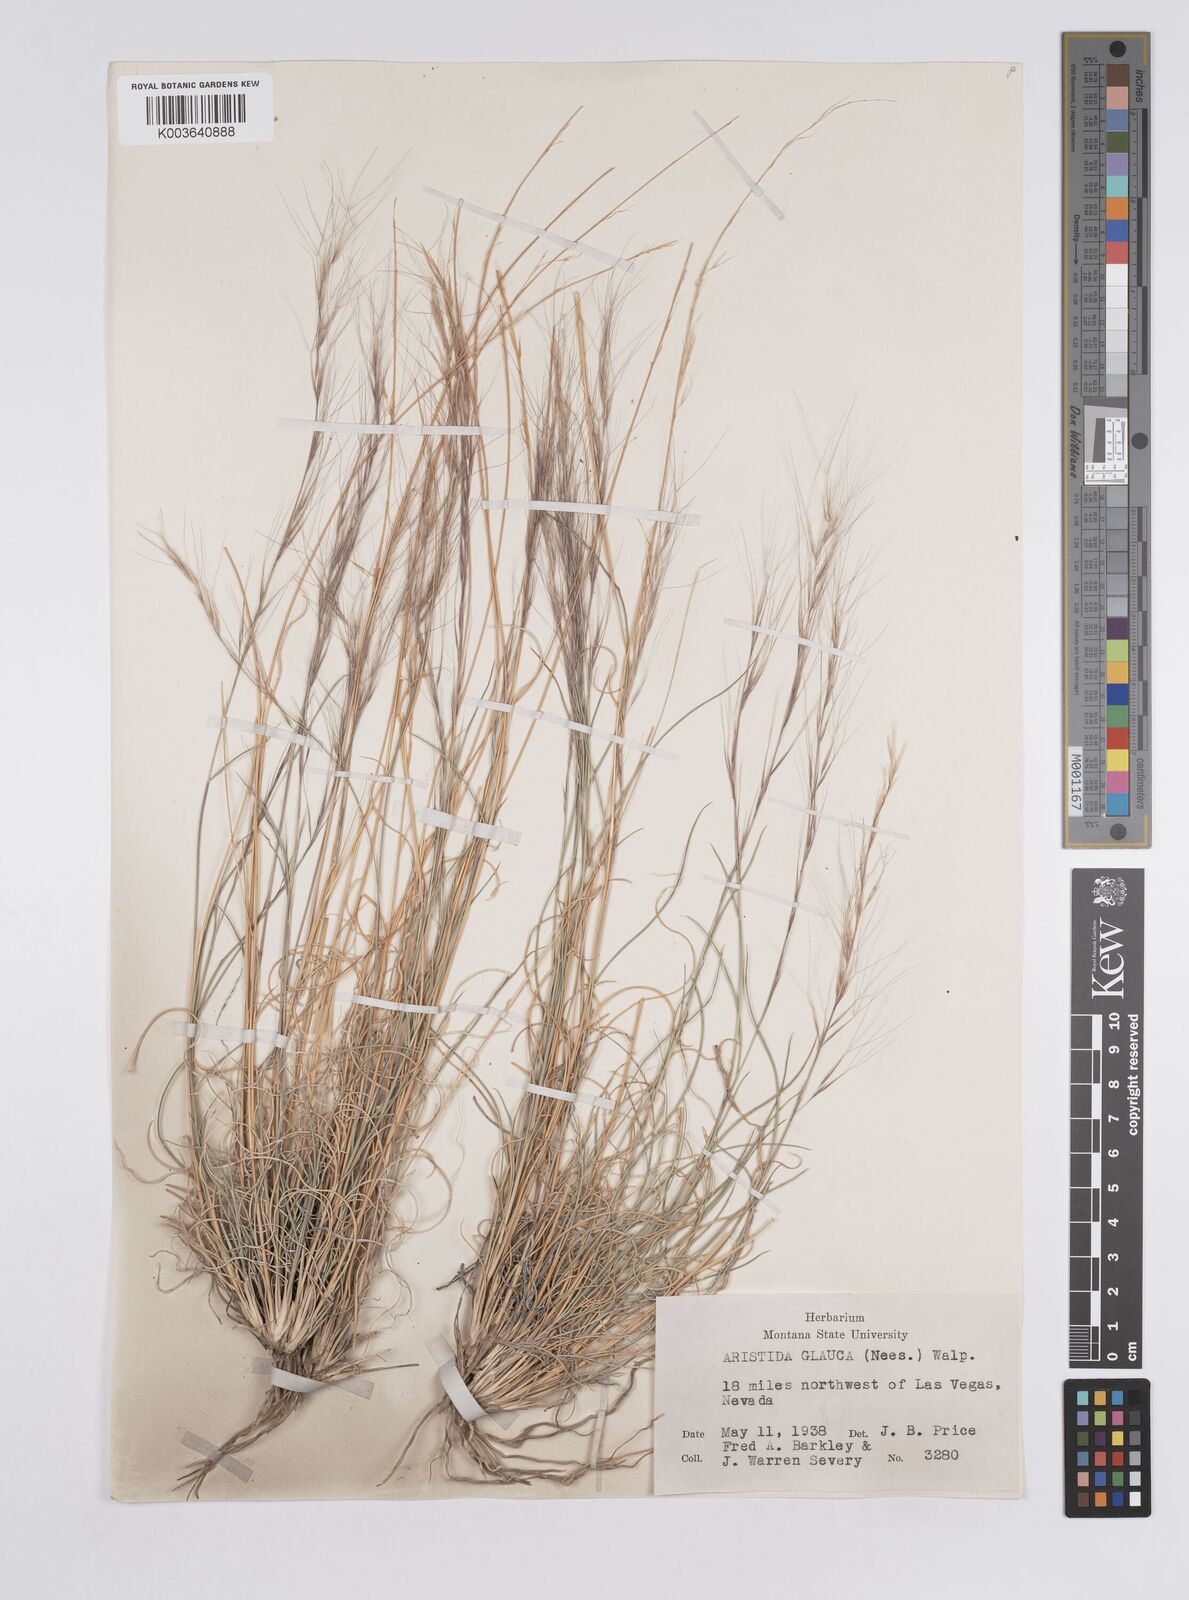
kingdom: Plantae
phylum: Tracheophyta
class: Liliopsida
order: Poales
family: Poaceae
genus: Aristida
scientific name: Aristida purpurea
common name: Purple threeawn
